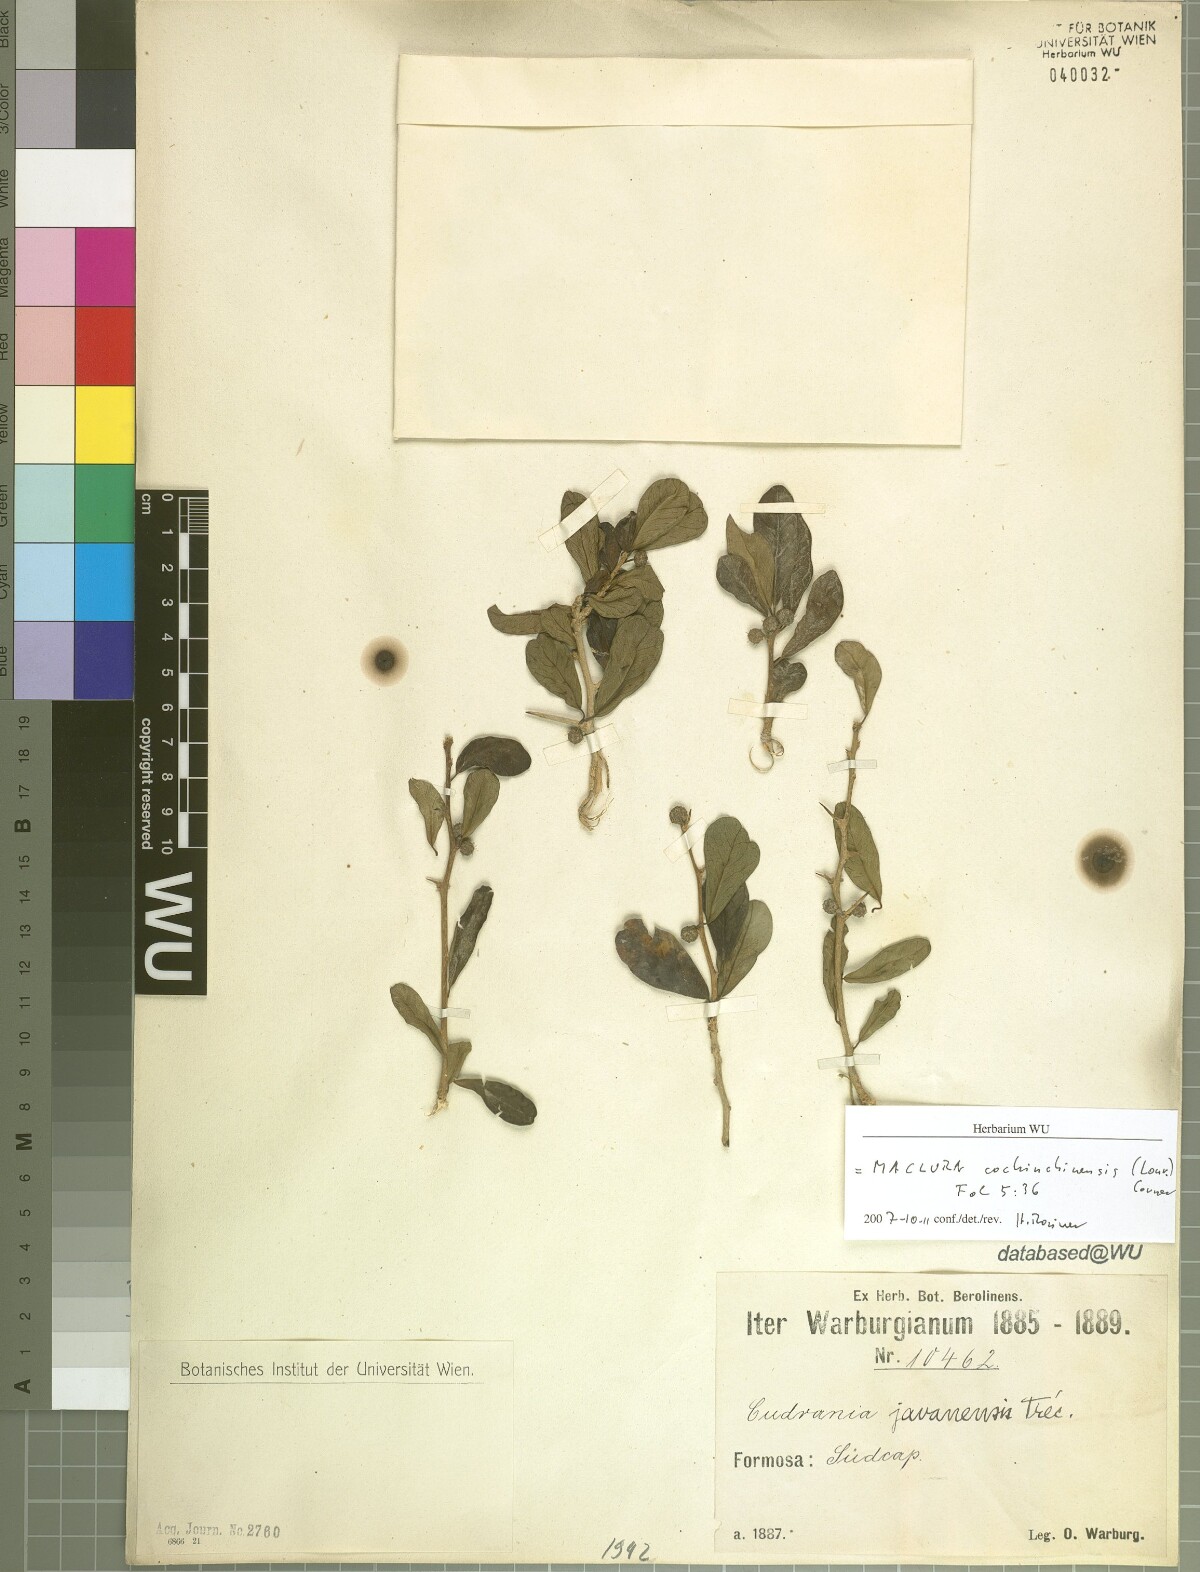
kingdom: Plantae
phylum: Tracheophyta
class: Magnoliopsida
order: Rosales
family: Moraceae
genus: Maclura
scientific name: Maclura cochinchinensis
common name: Cockspurthorn
